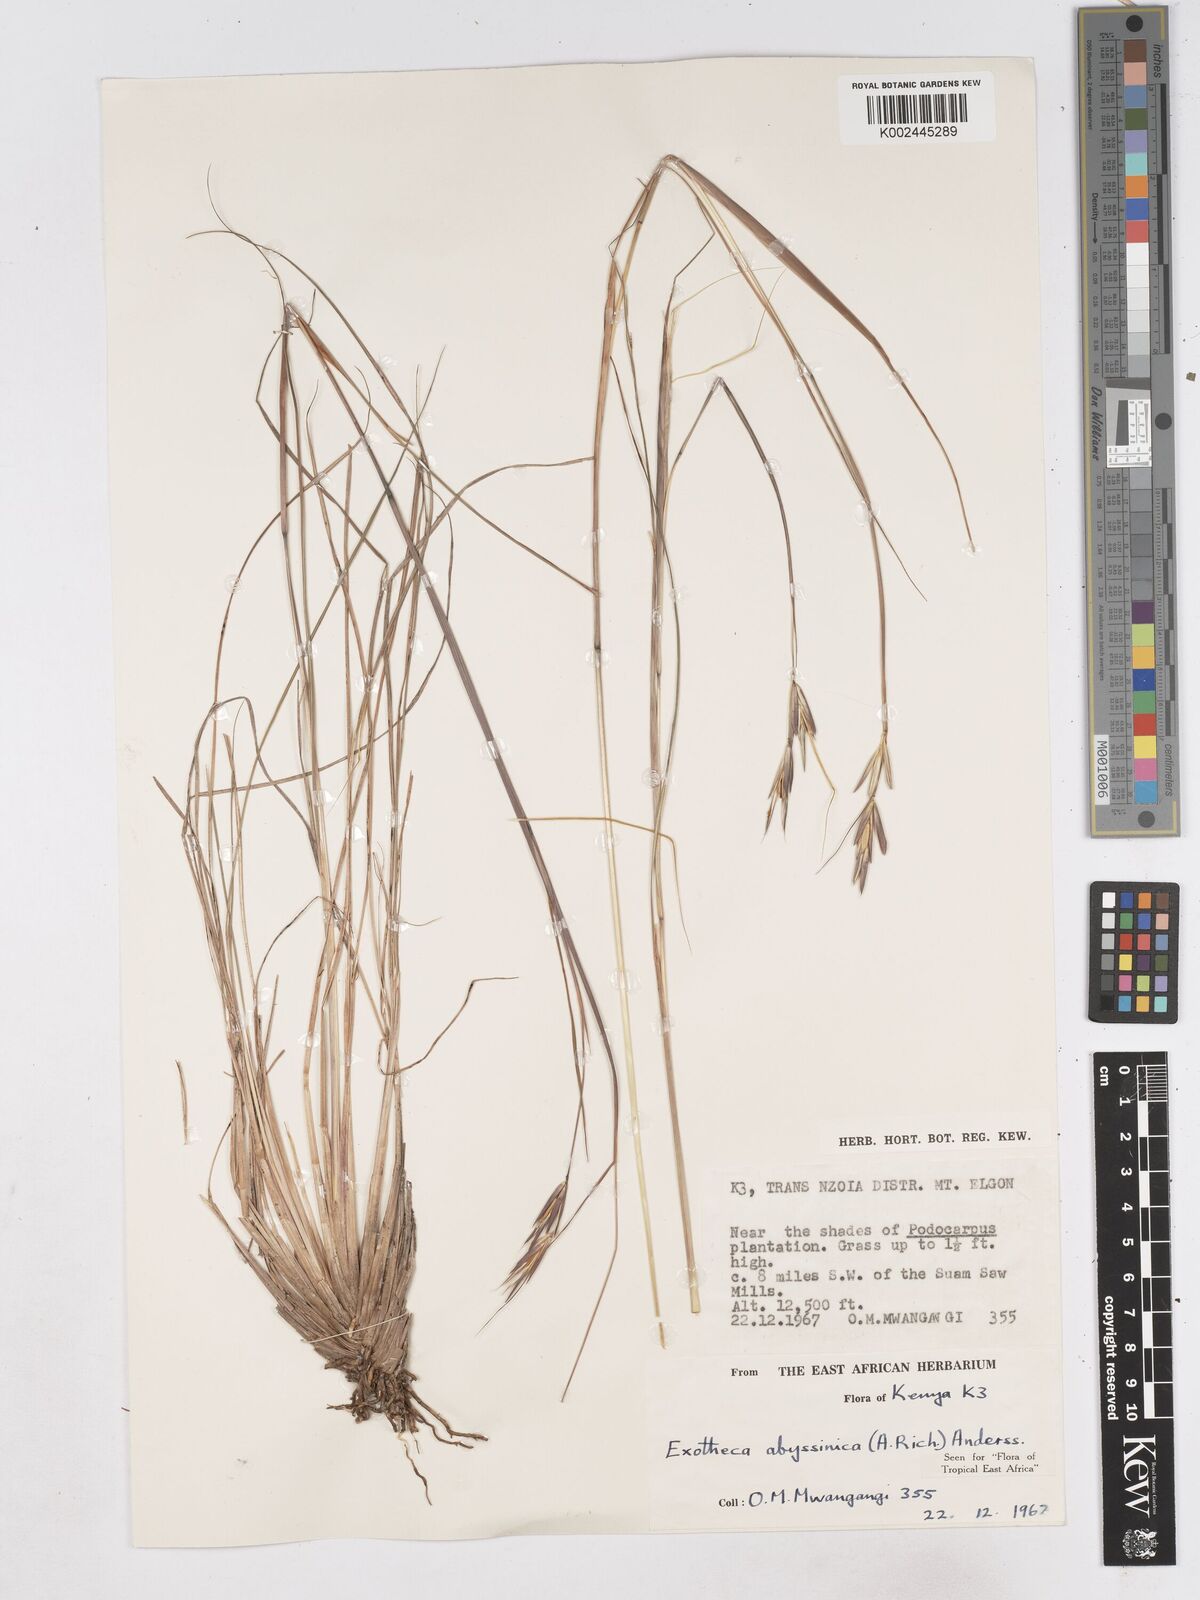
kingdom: Plantae
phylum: Tracheophyta
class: Liliopsida
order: Poales
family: Poaceae
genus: Exotheca
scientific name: Exotheca abyssinica
